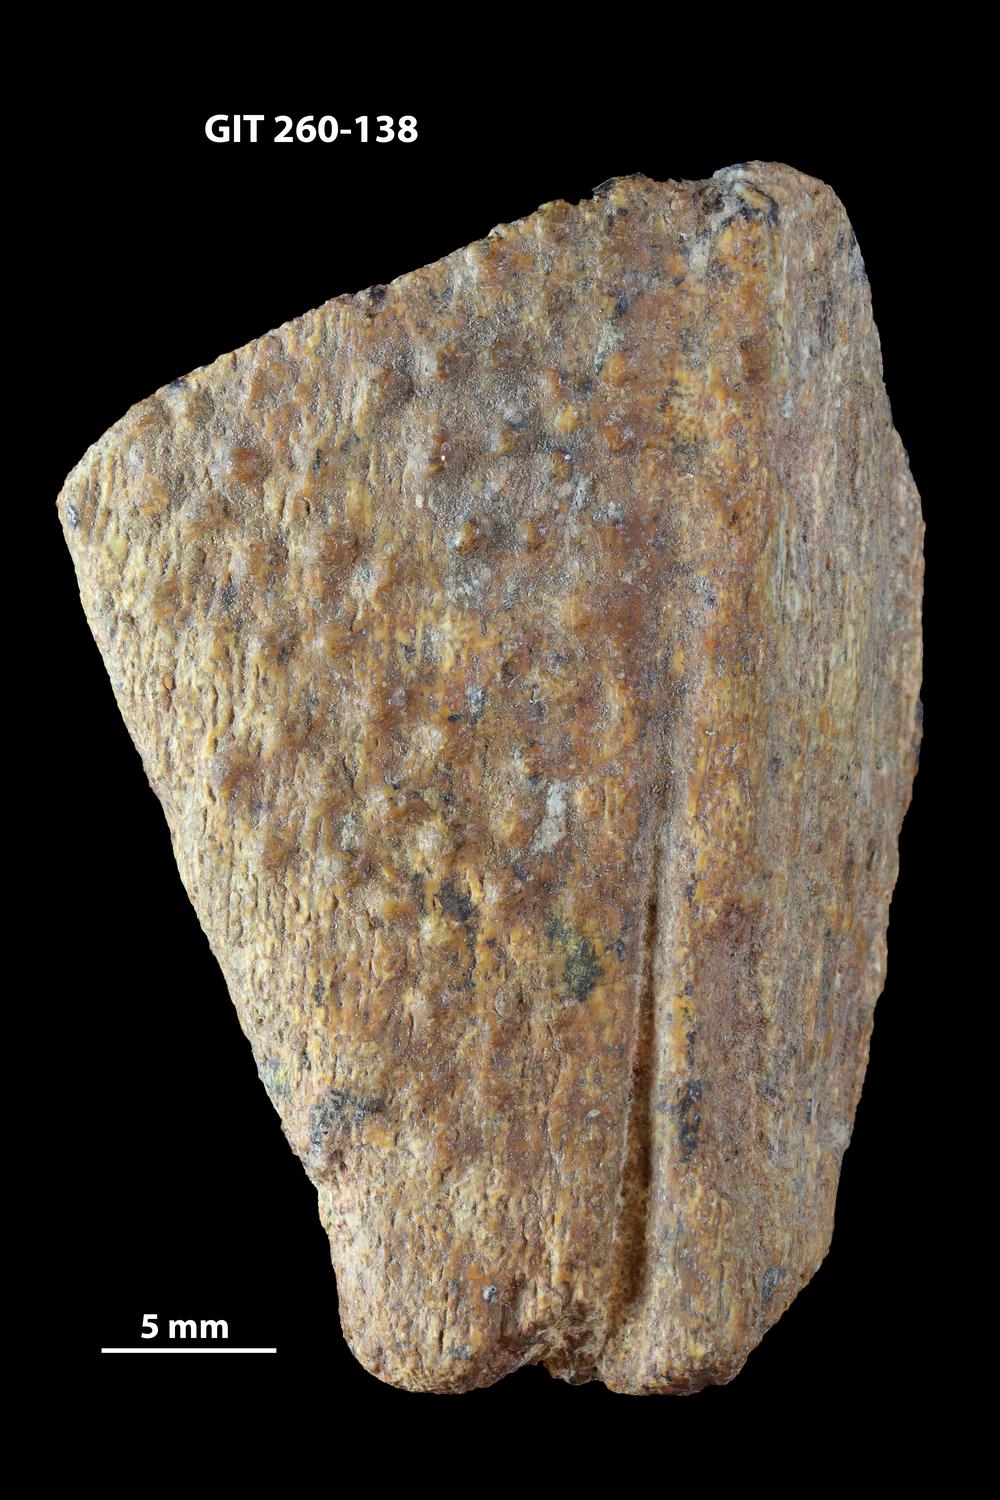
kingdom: Animalia
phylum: Chordata
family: Homostiidae
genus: Homostius
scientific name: Homostius
